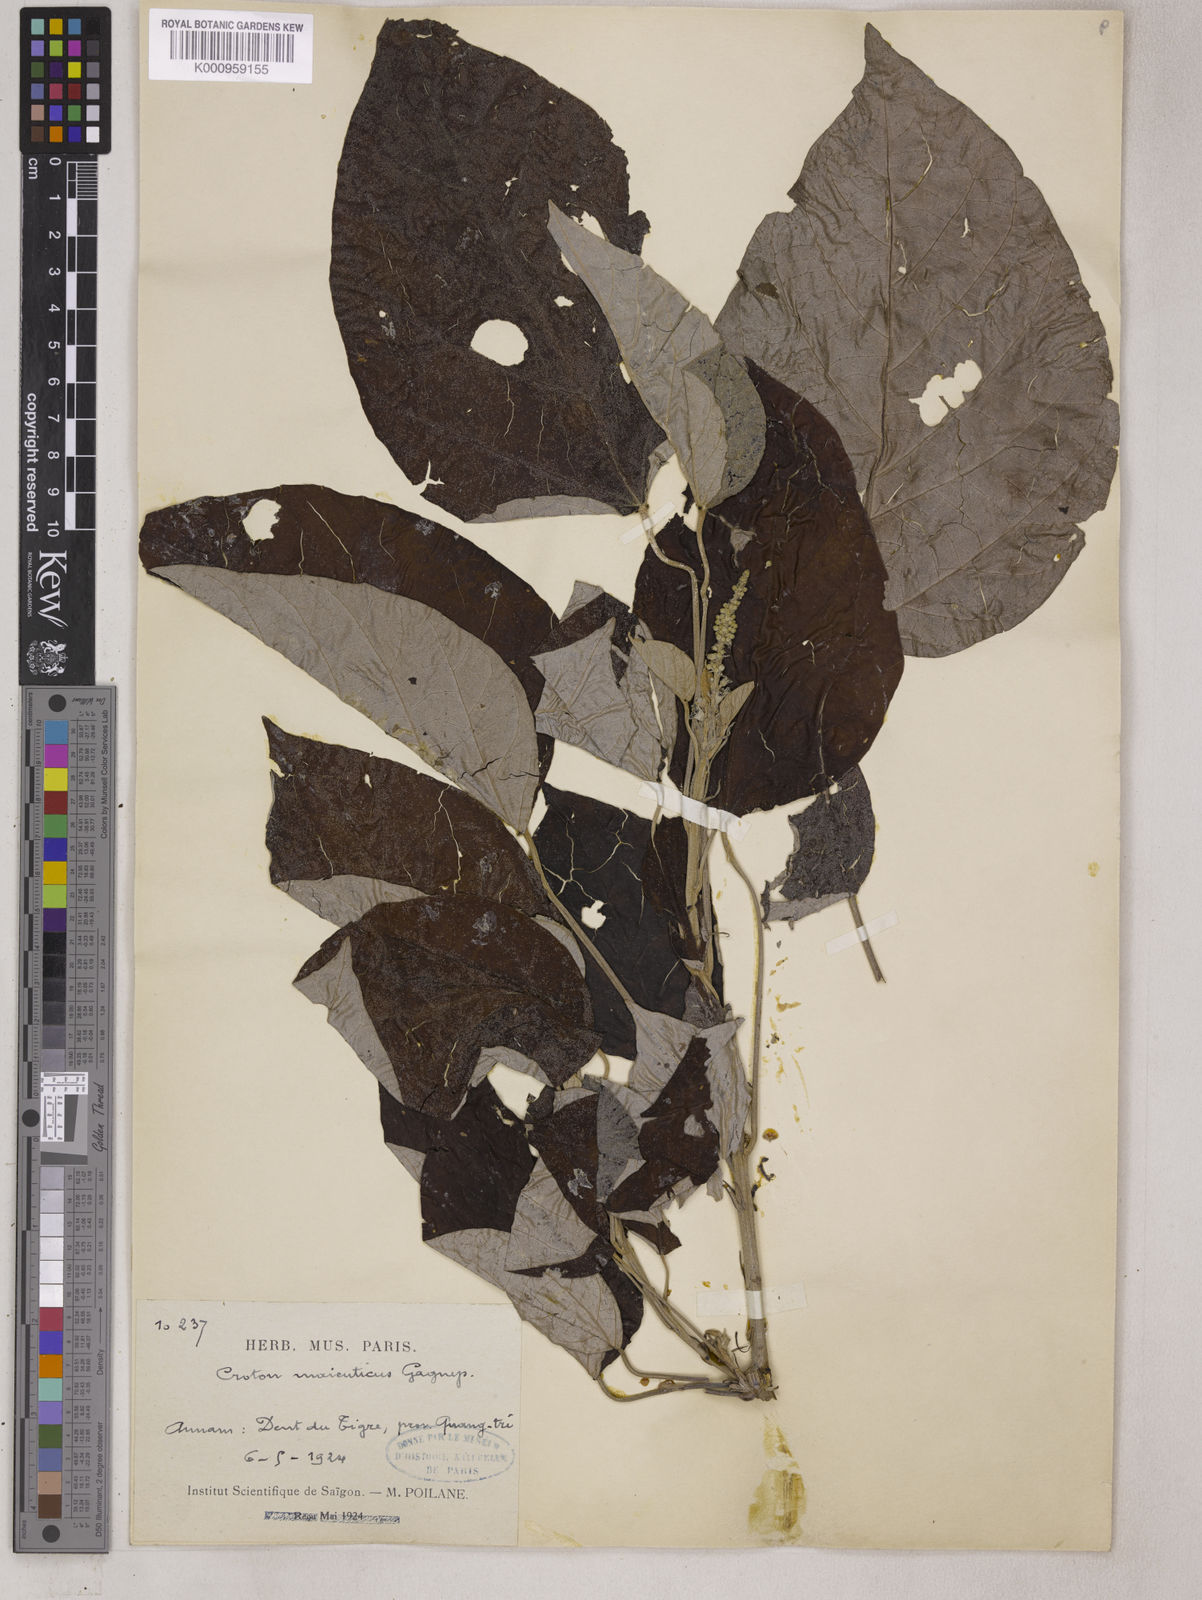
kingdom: Plantae
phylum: Tracheophyta
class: Magnoliopsida
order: Malpighiales
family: Euphorbiaceae
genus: Croton
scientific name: Croton argyratus
